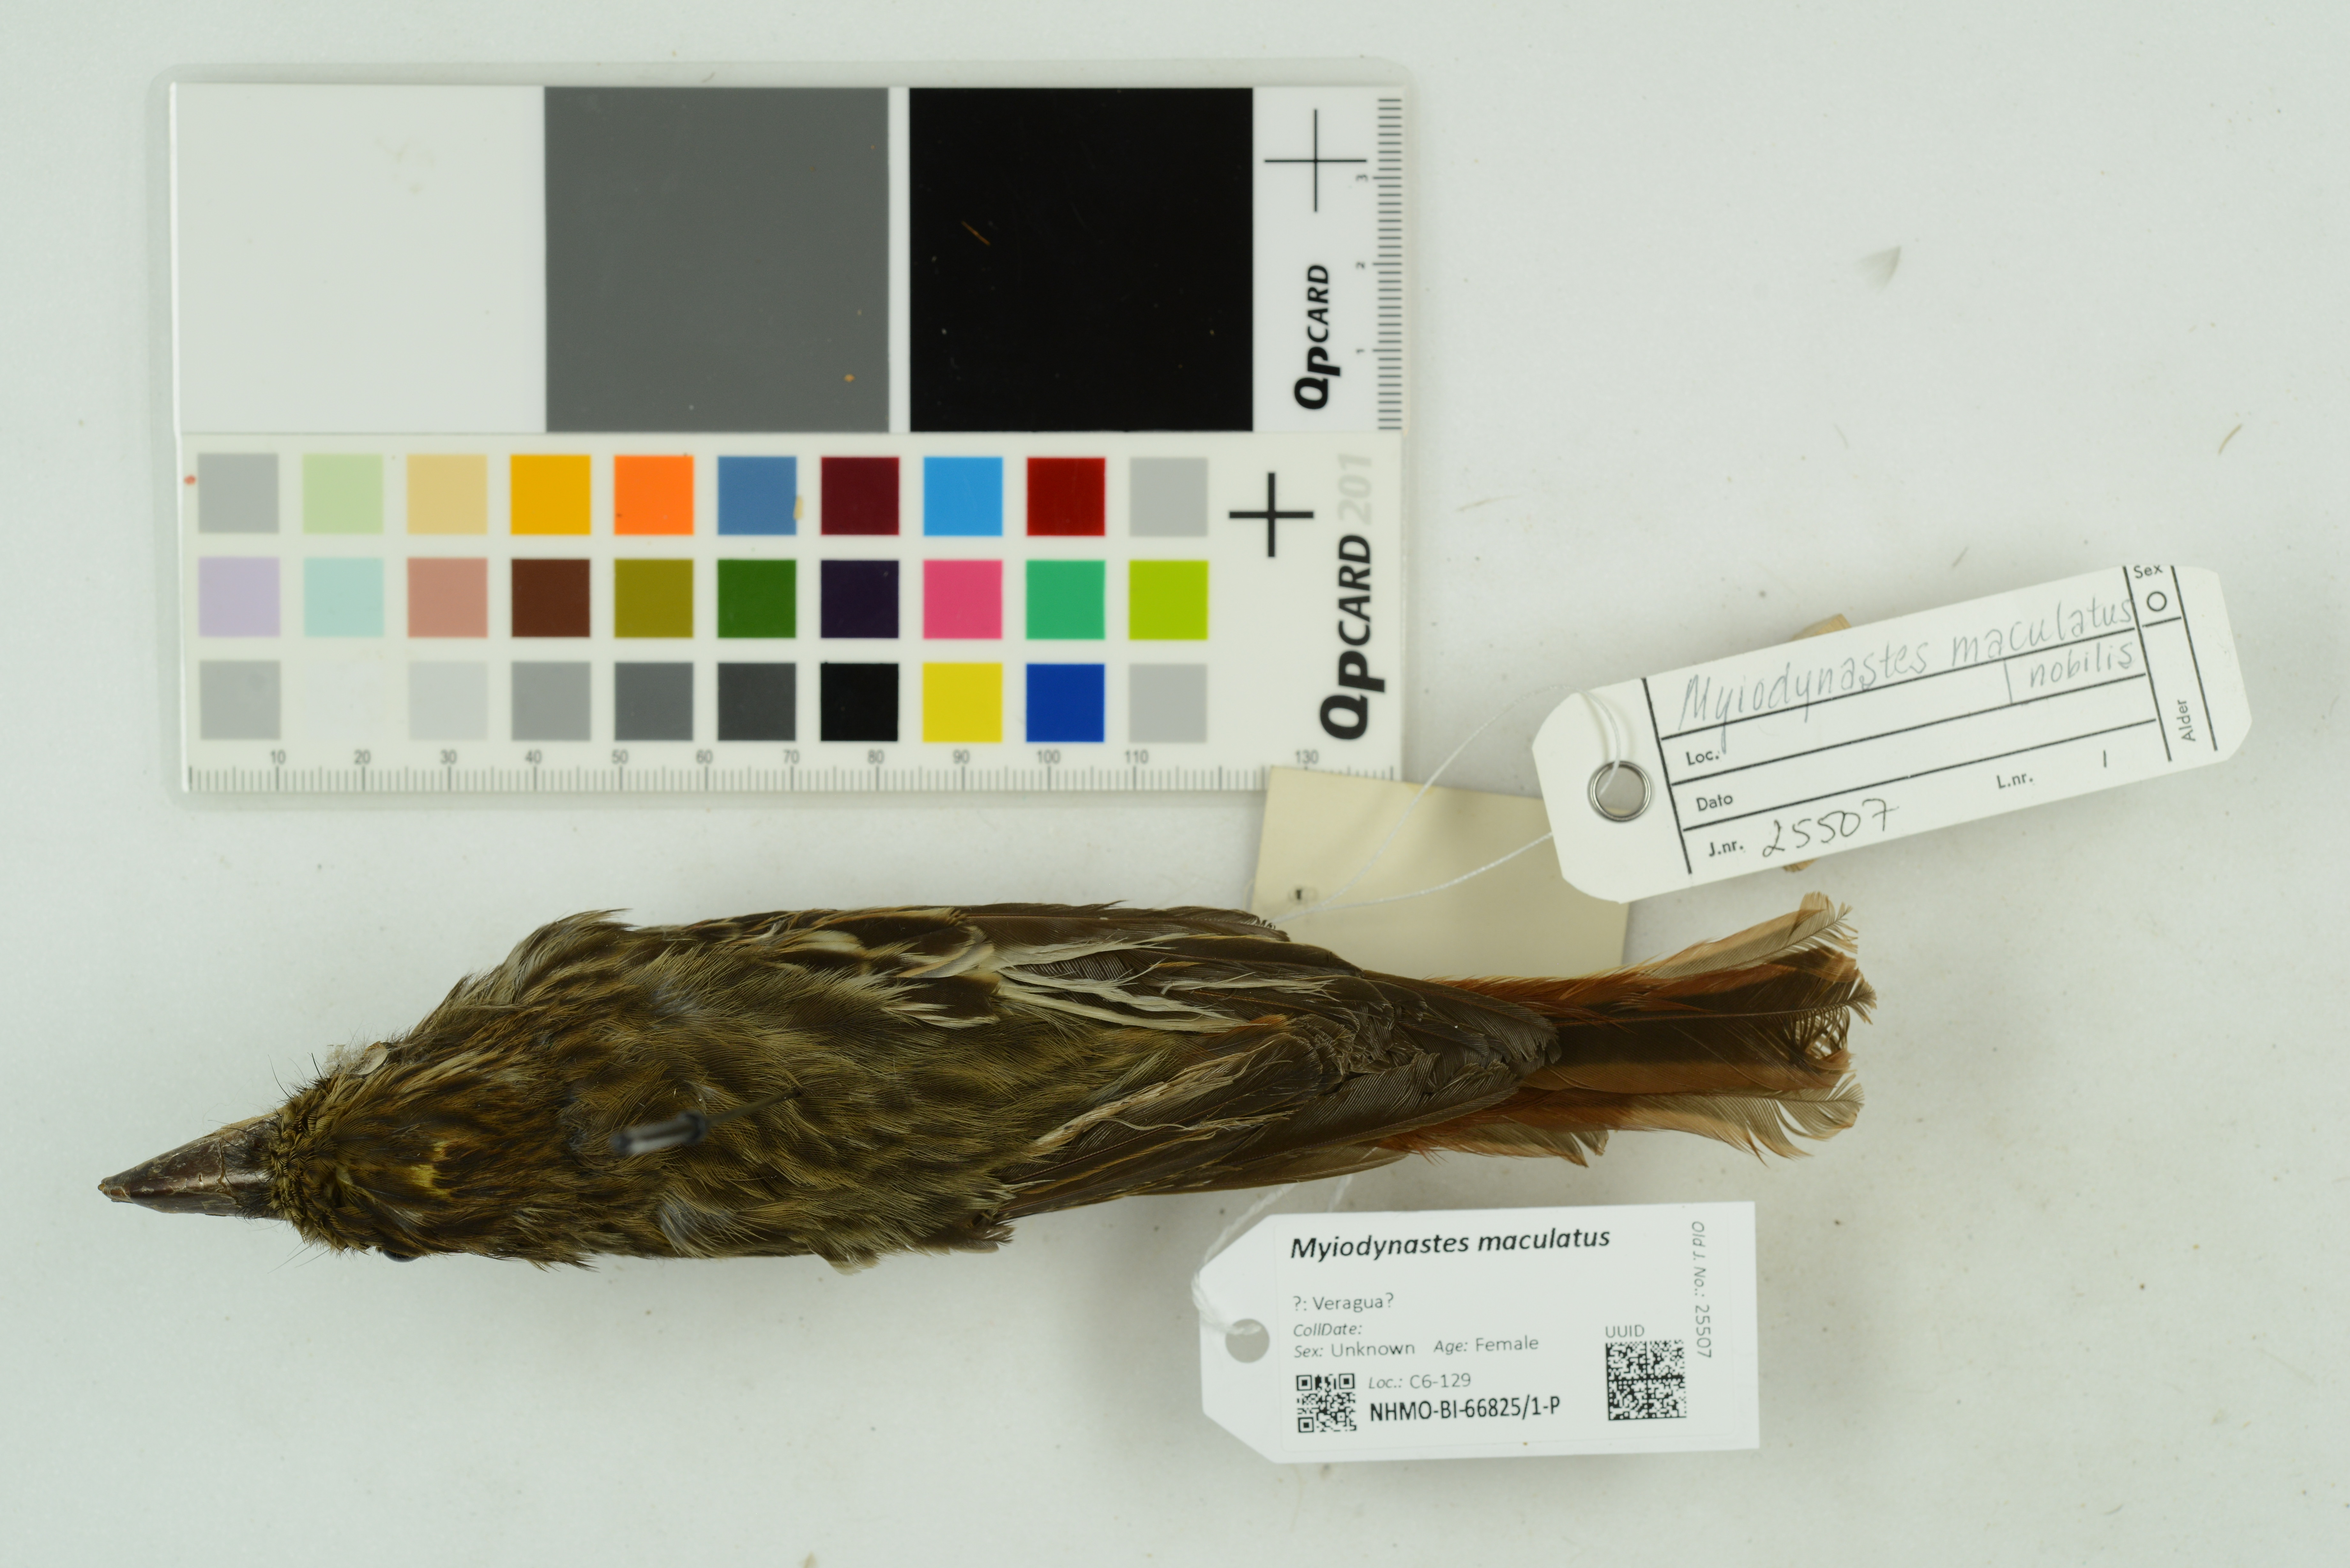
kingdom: Animalia
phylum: Chordata
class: Aves
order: Passeriformes
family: Tyrannidae
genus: Myiodynastes
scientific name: Myiodynastes maculatus
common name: Streaked flycatcher
